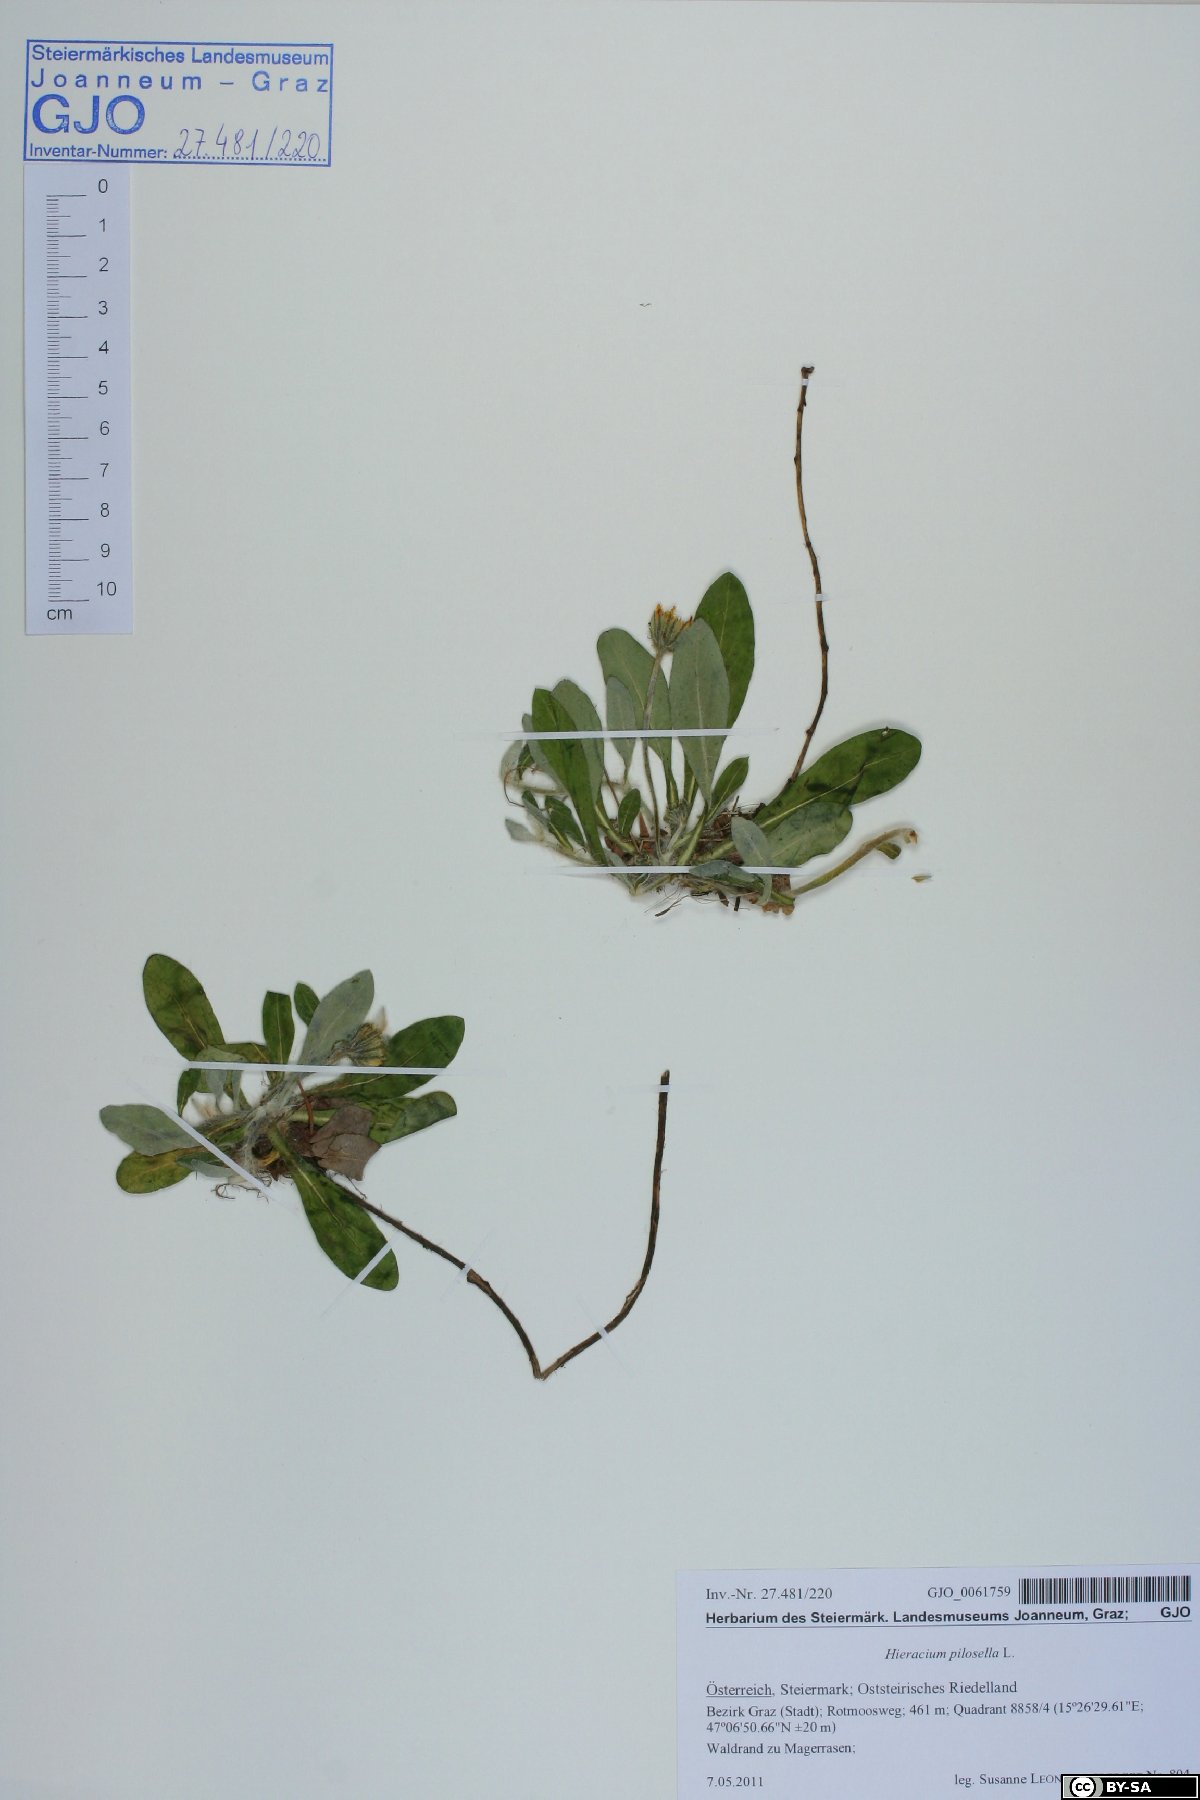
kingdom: Plantae
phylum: Tracheophyta
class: Magnoliopsida
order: Asterales
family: Asteraceae
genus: Pilosella
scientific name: Pilosella officinarum
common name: Mouse-ear hawkweed
